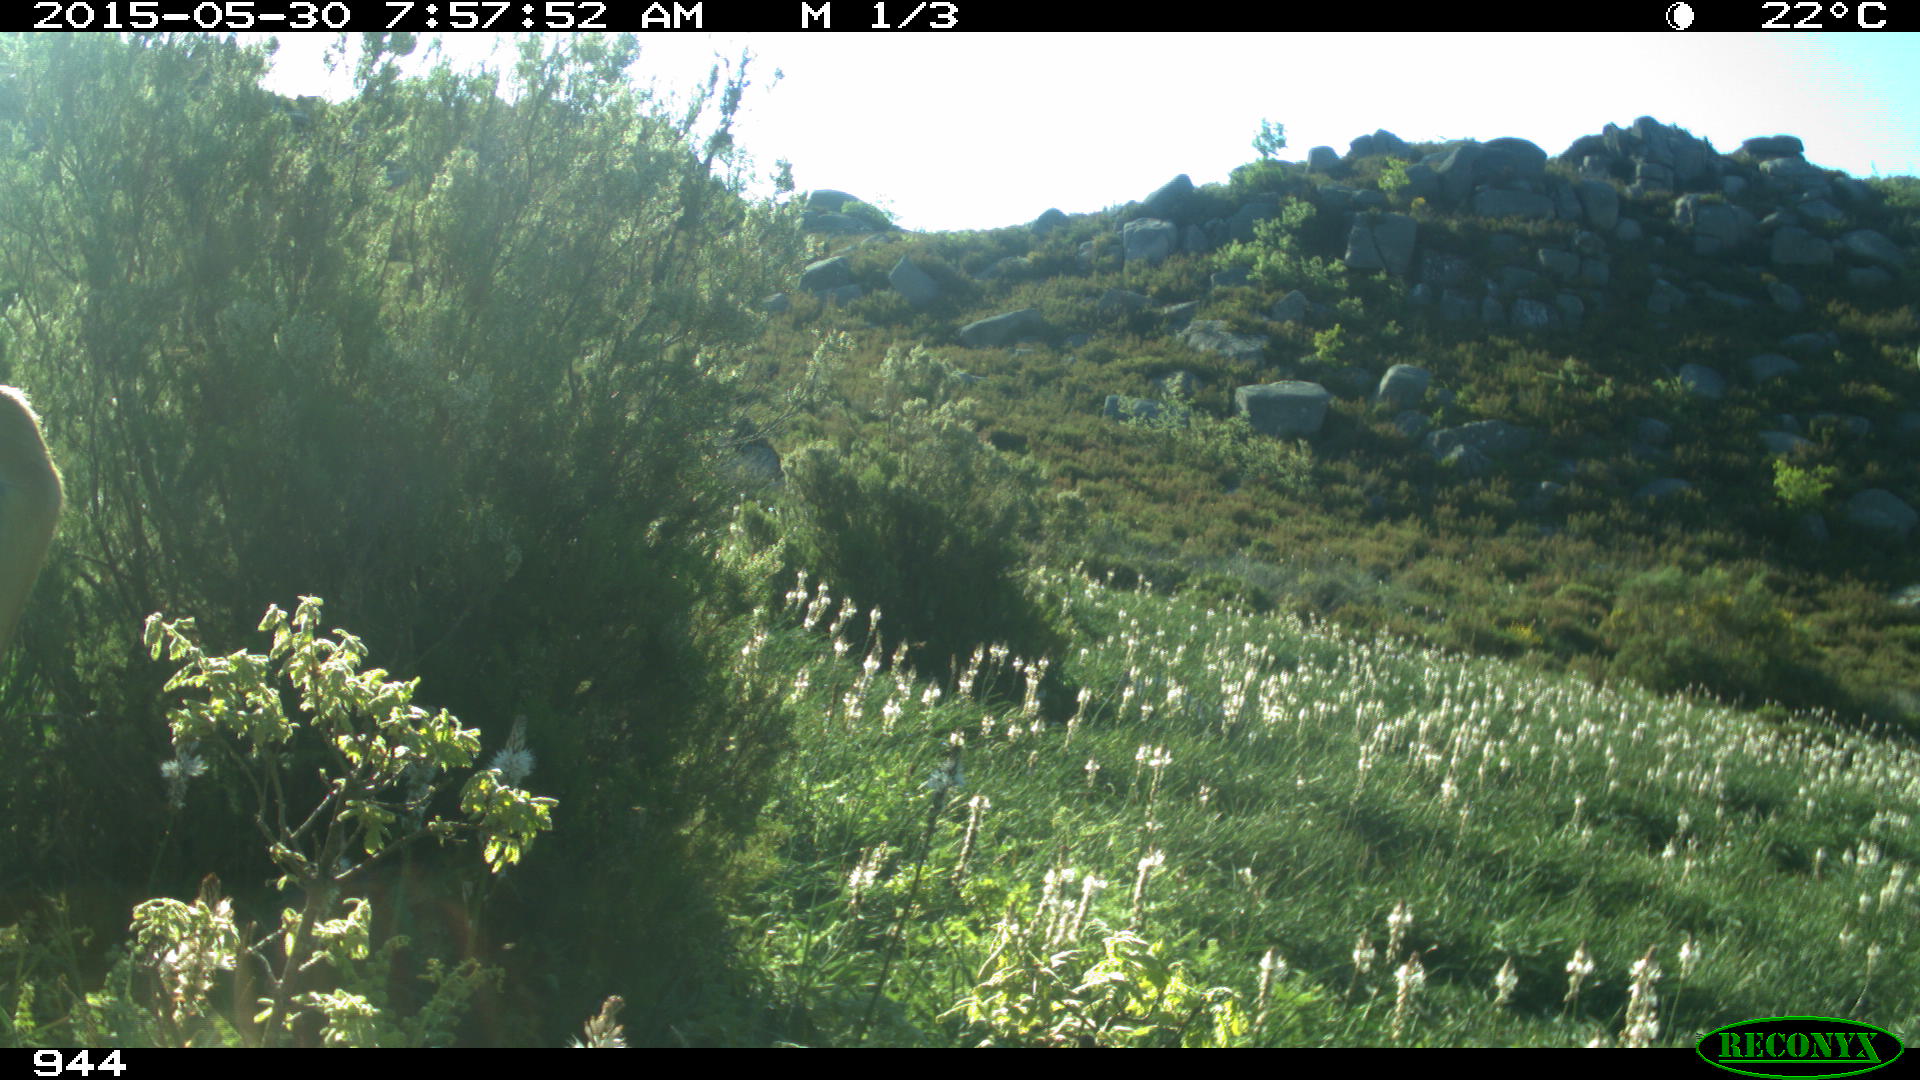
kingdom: Animalia
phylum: Chordata
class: Mammalia
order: Artiodactyla
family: Bovidae
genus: Bos
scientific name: Bos taurus
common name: Domesticated cattle
